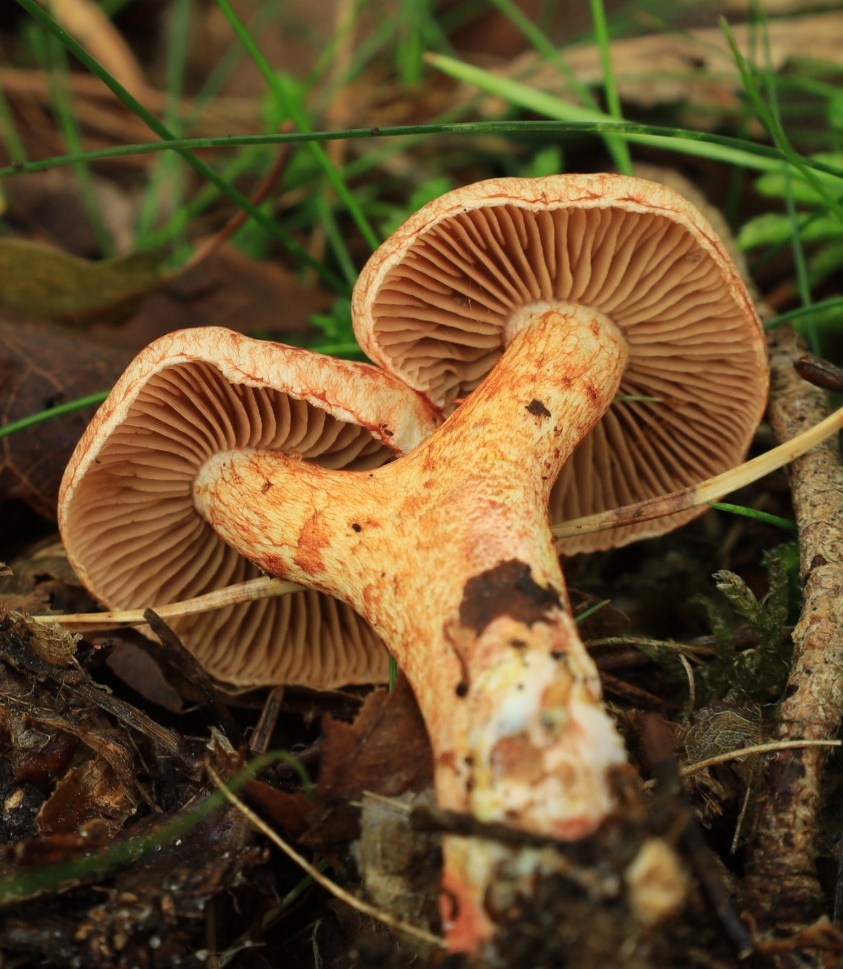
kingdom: Fungi
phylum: Basidiomycota
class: Agaricomycetes
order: Agaricales
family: Cortinariaceae
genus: Cortinarius
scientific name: Cortinarius bolaris
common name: cinnoberskællet slørhat
